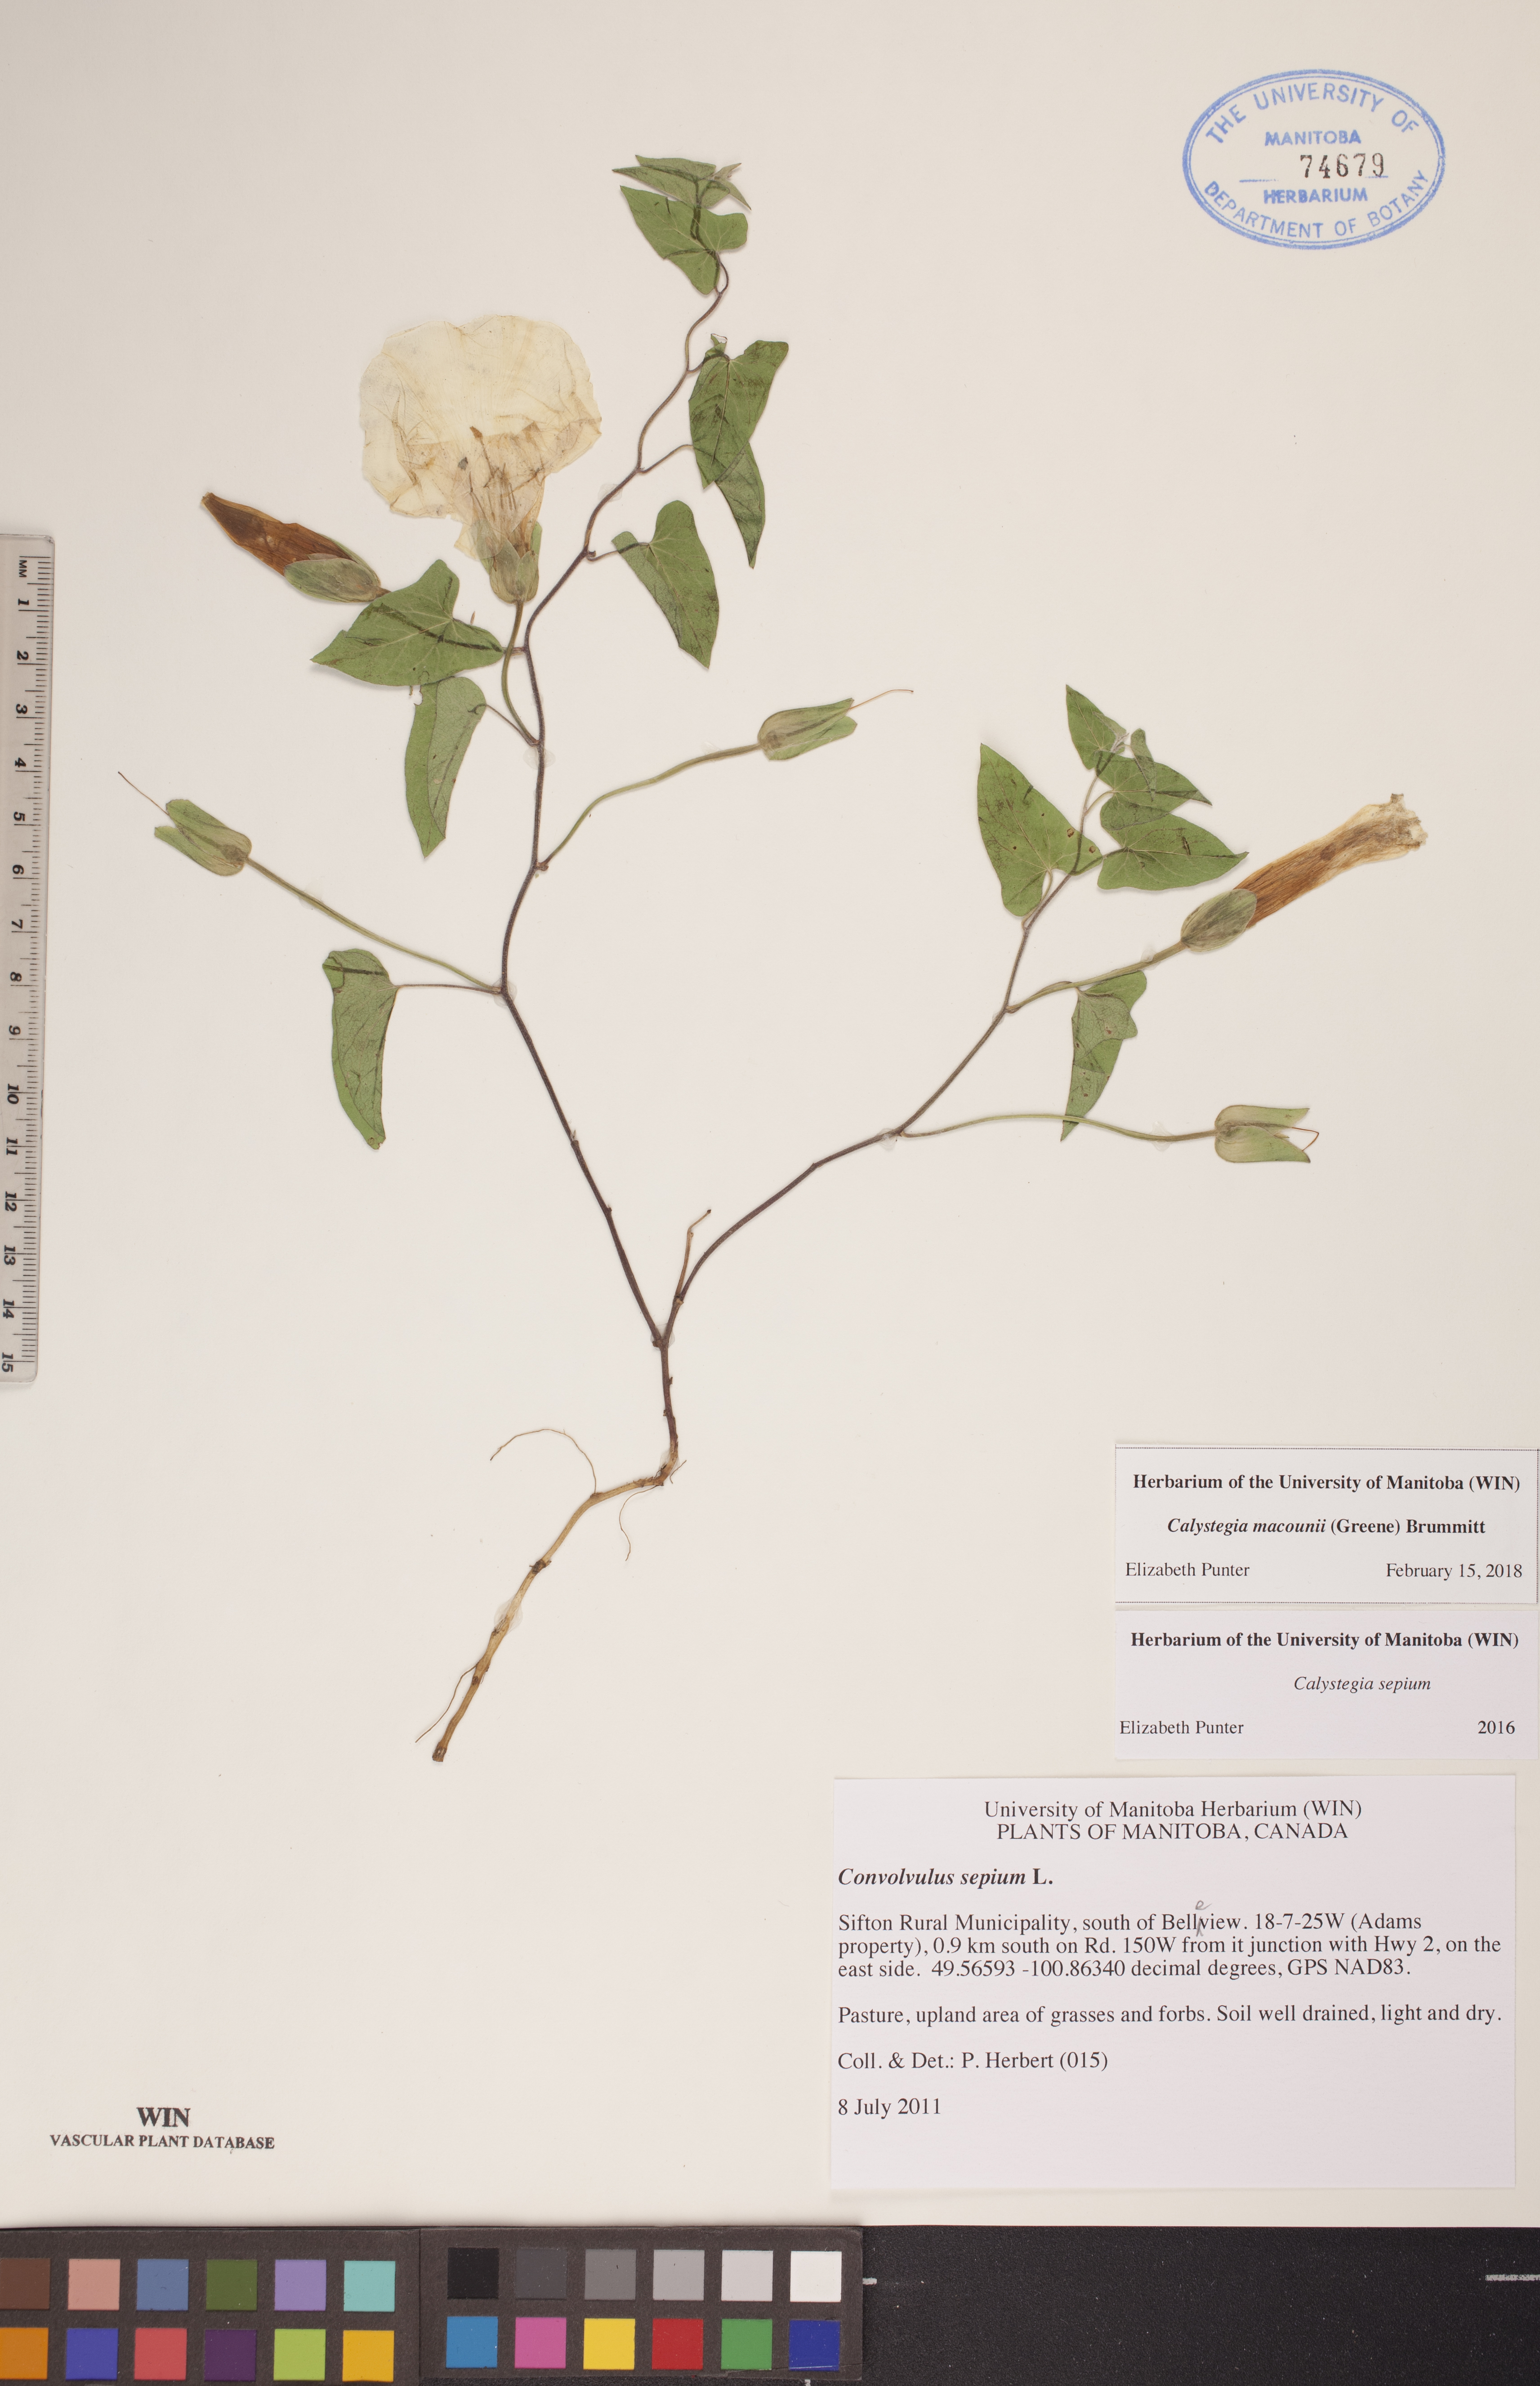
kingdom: Plantae
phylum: Tracheophyta
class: Magnoliopsida
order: Solanales
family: Convolvulaceae
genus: Calystegia
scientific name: Calystegia macounii
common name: Macoun's bindweed
